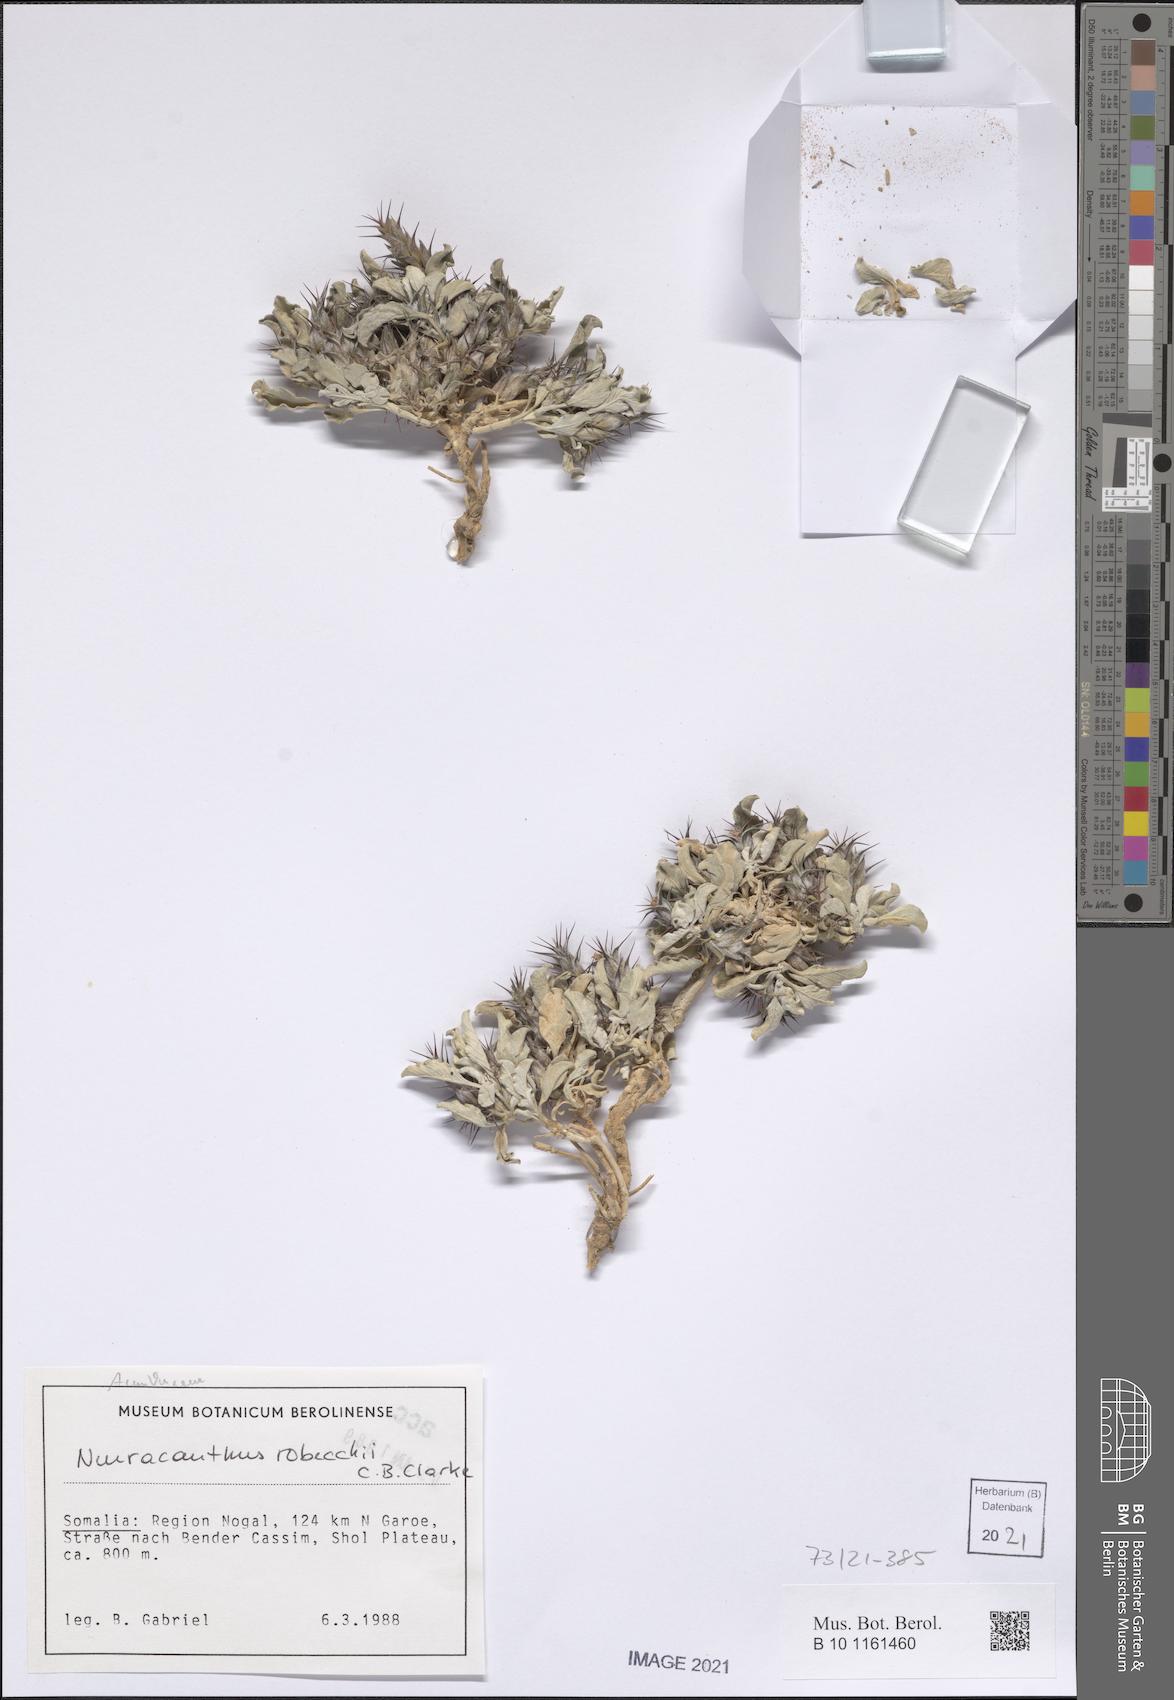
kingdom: Plantae
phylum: Tracheophyta
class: Magnoliopsida
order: Lamiales
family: Acanthaceae
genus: Neuracanthus
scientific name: Neuracanthus robecchii
